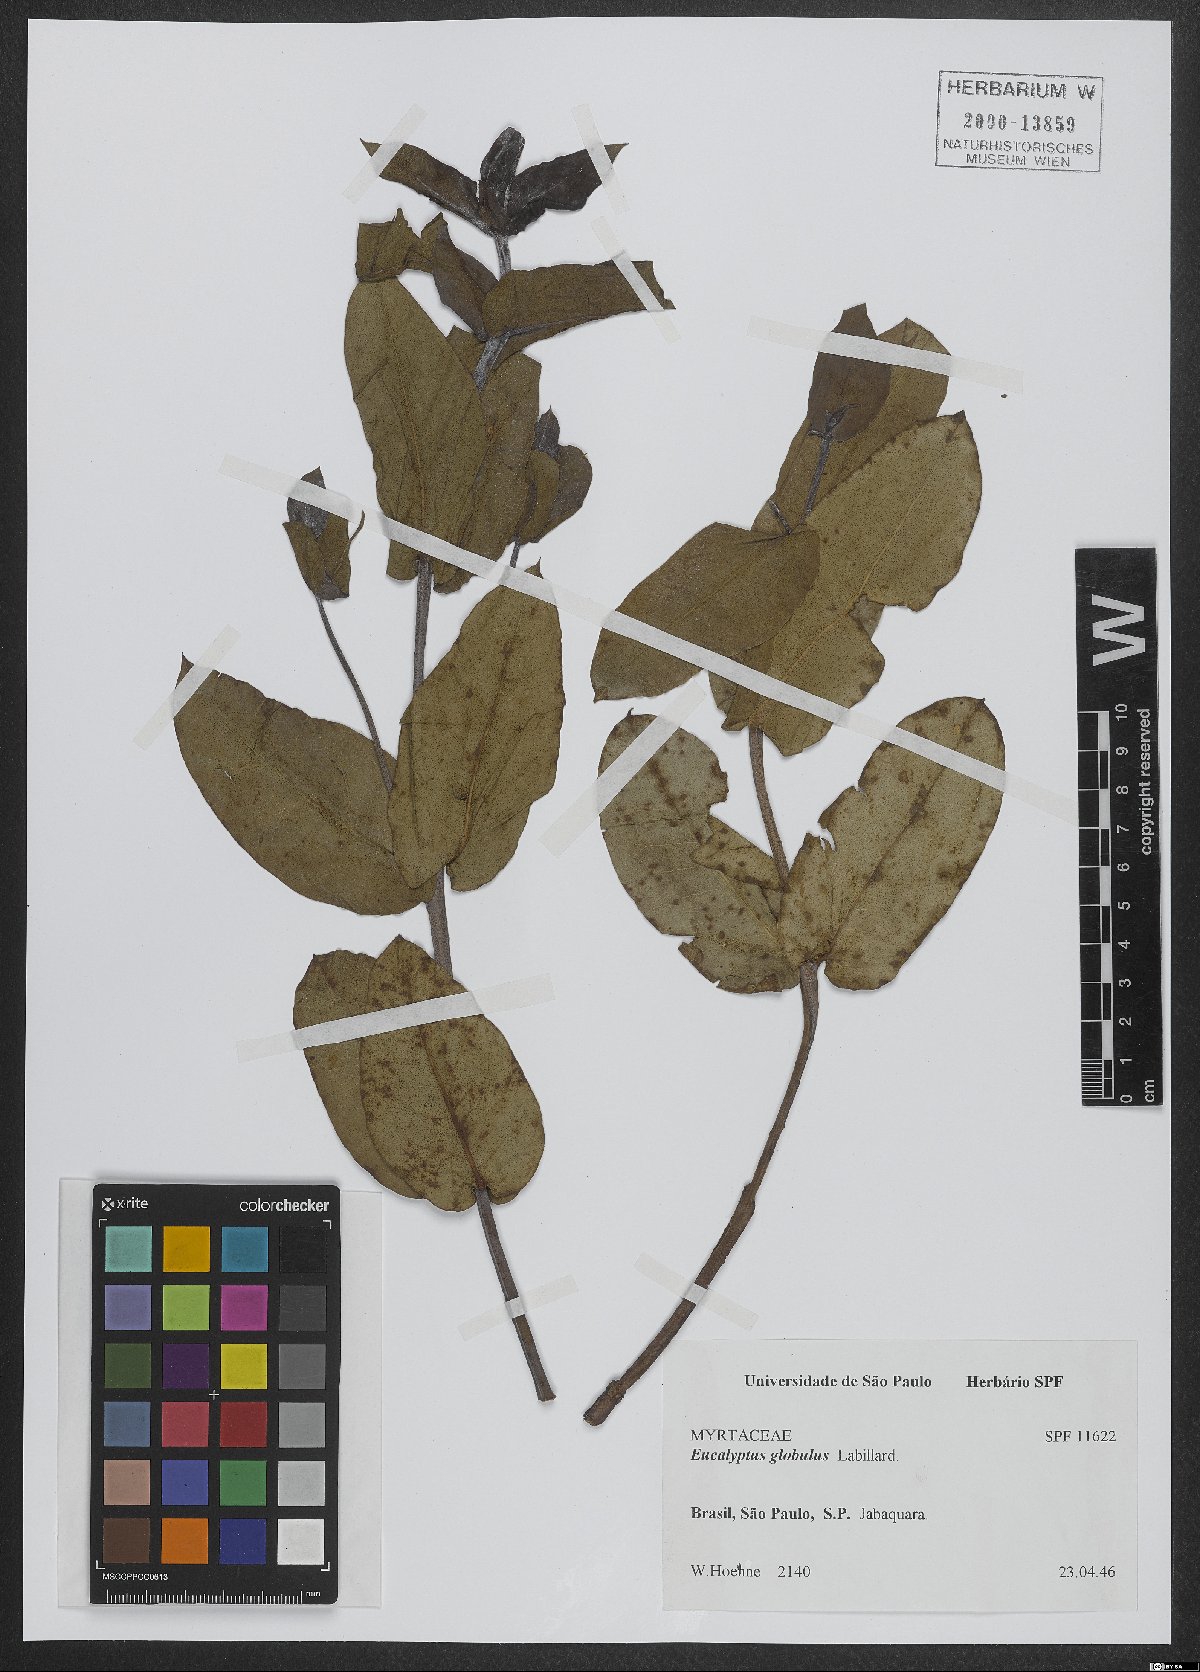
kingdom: Plantae
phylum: Tracheophyta
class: Magnoliopsida
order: Myrtales
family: Myrtaceae
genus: Eucalyptus
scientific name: Eucalyptus globulus
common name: Southern blue-gum
